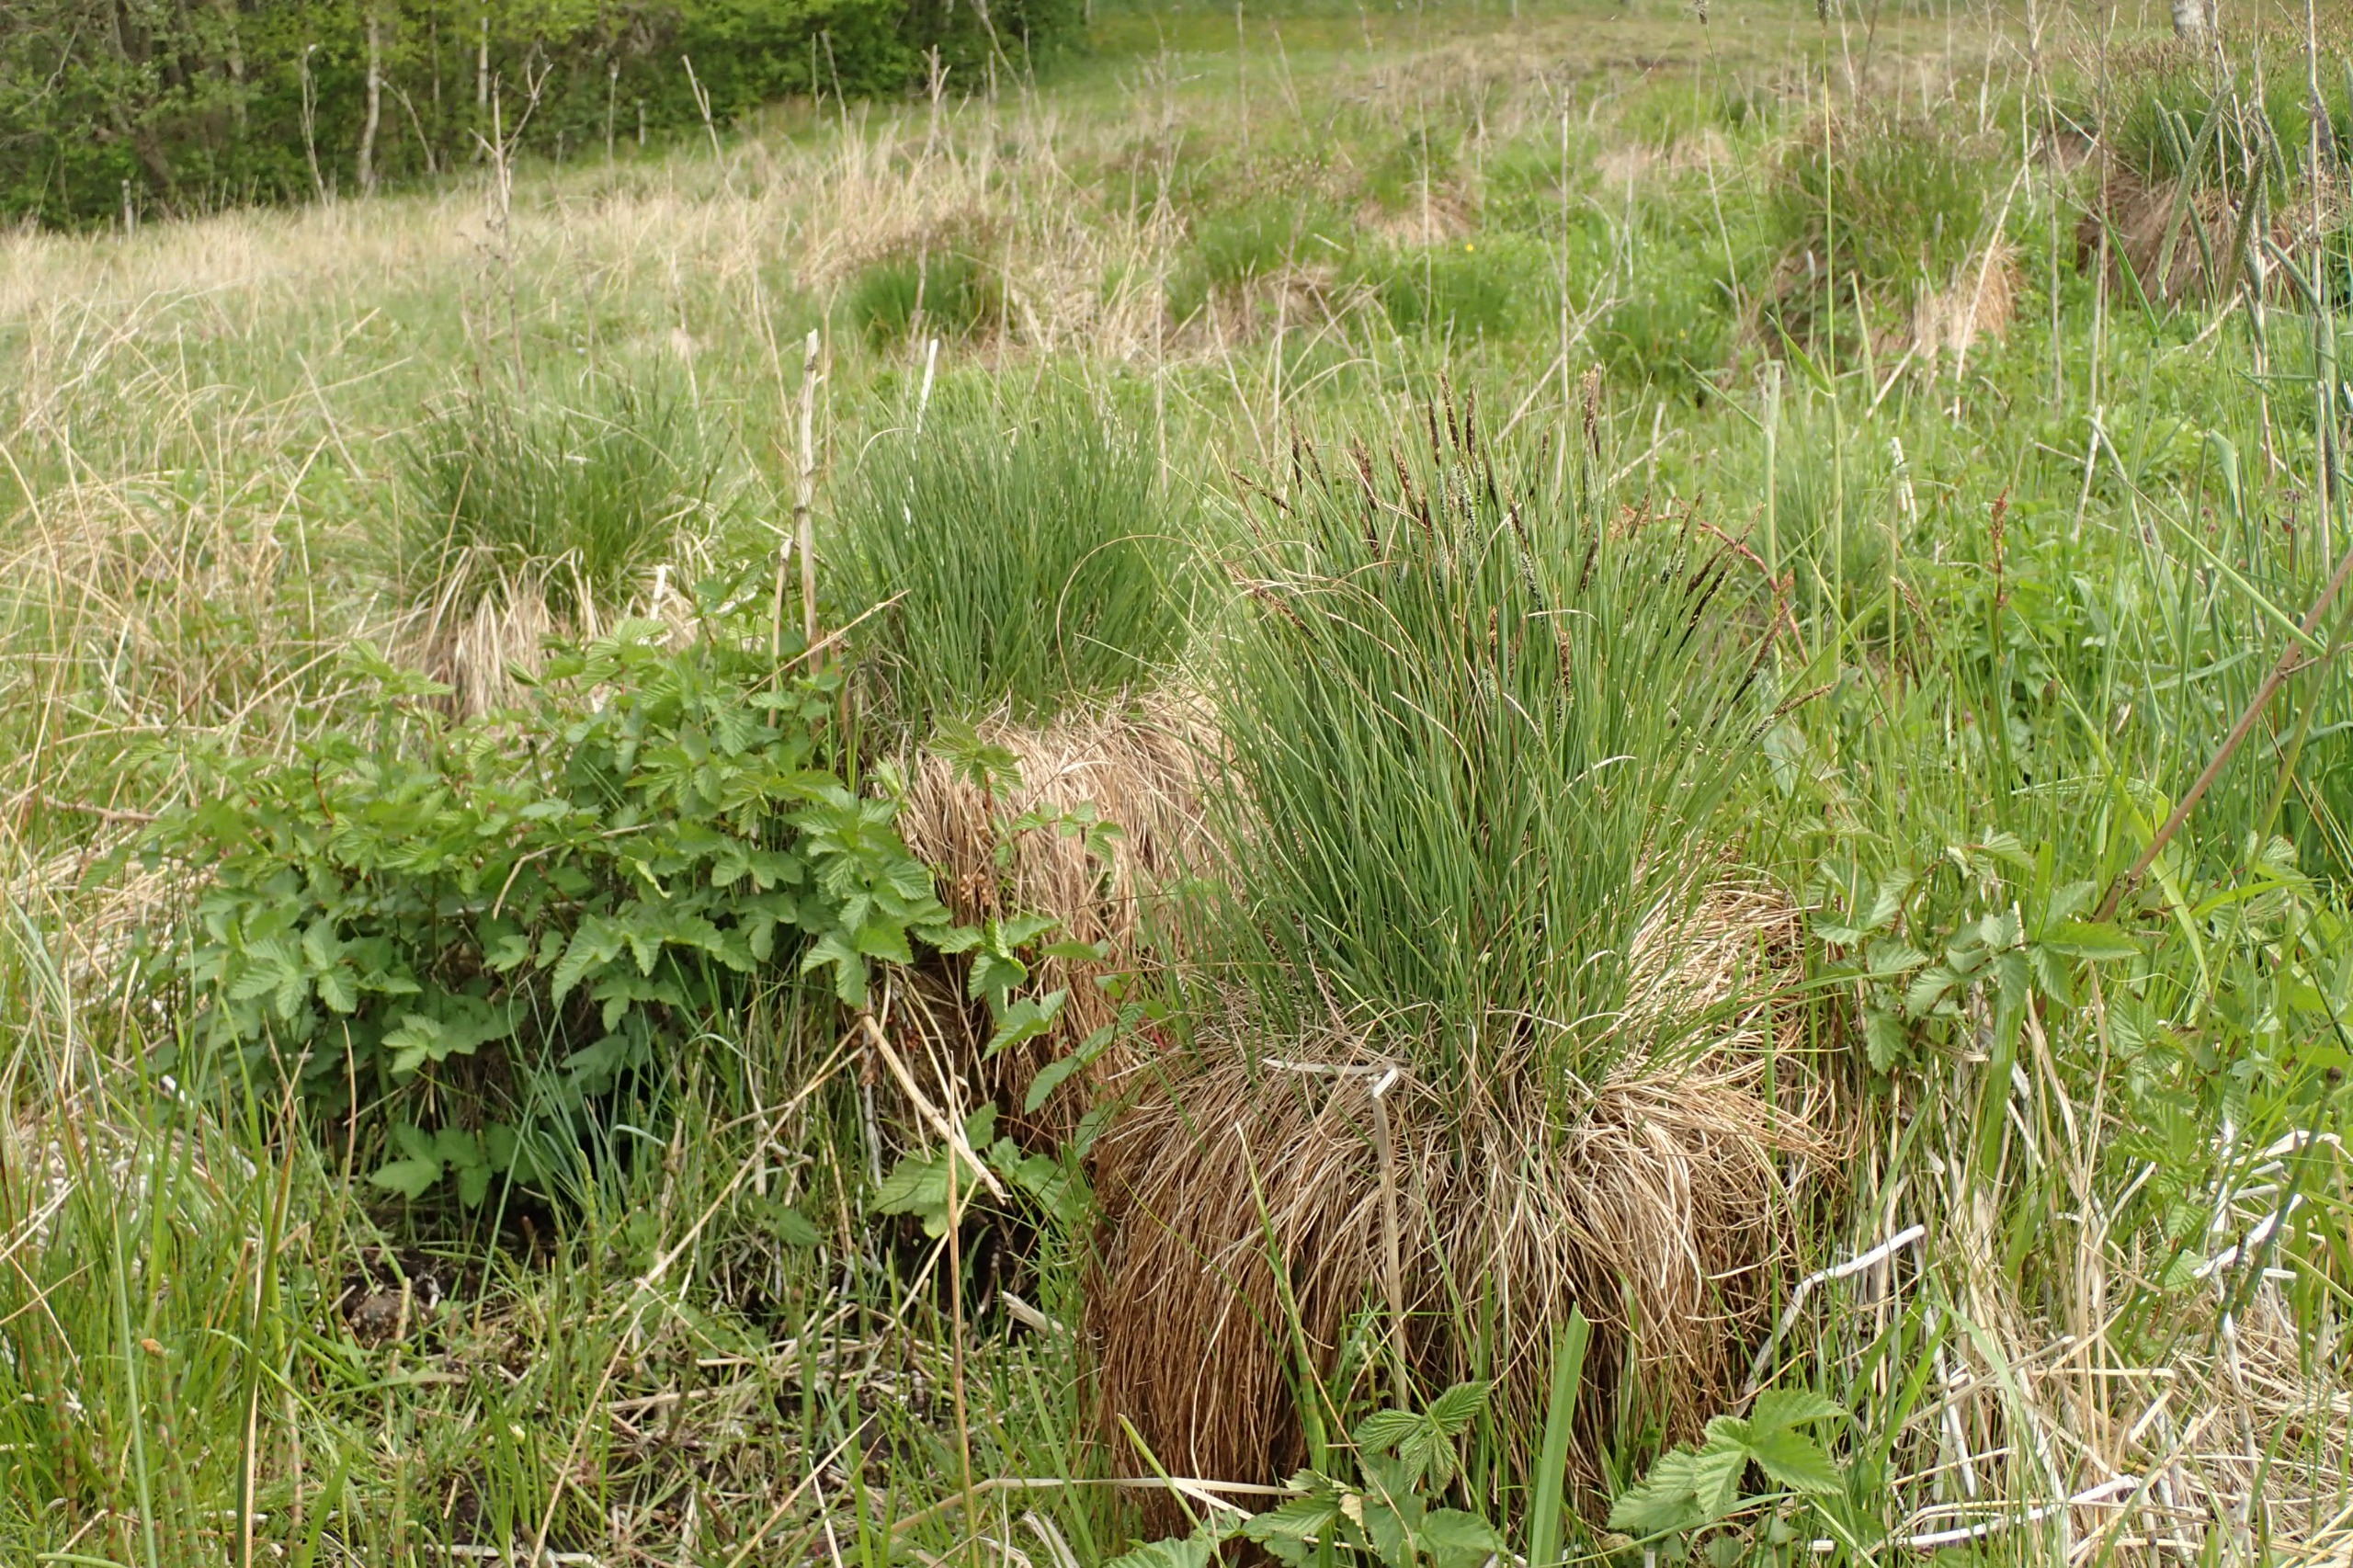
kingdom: Plantae
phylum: Tracheophyta
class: Liliopsida
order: Poales
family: Cyperaceae
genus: Carex
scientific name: Carex nigra
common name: Knold-star
